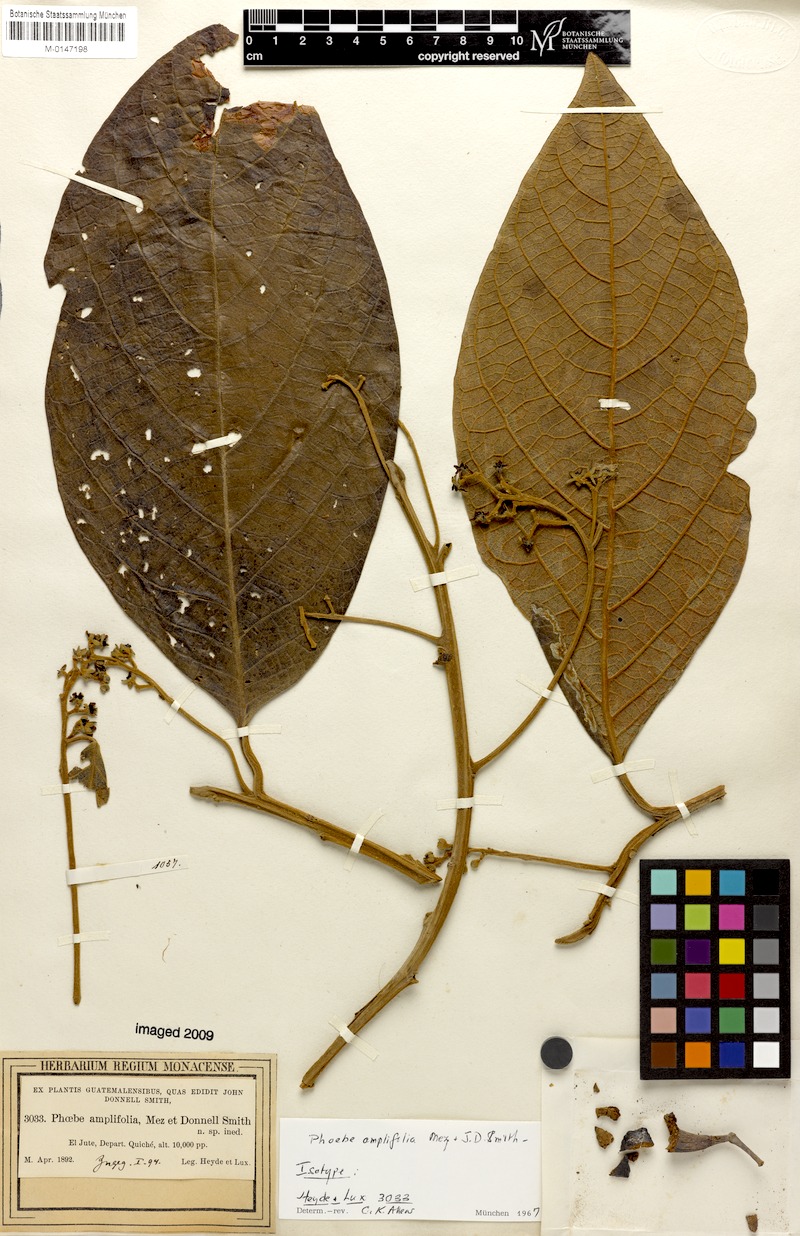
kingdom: Plantae
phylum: Tracheophyta
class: Magnoliopsida
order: Laurales
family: Lauraceae
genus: Ocotea
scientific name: Ocotea amplifolia
